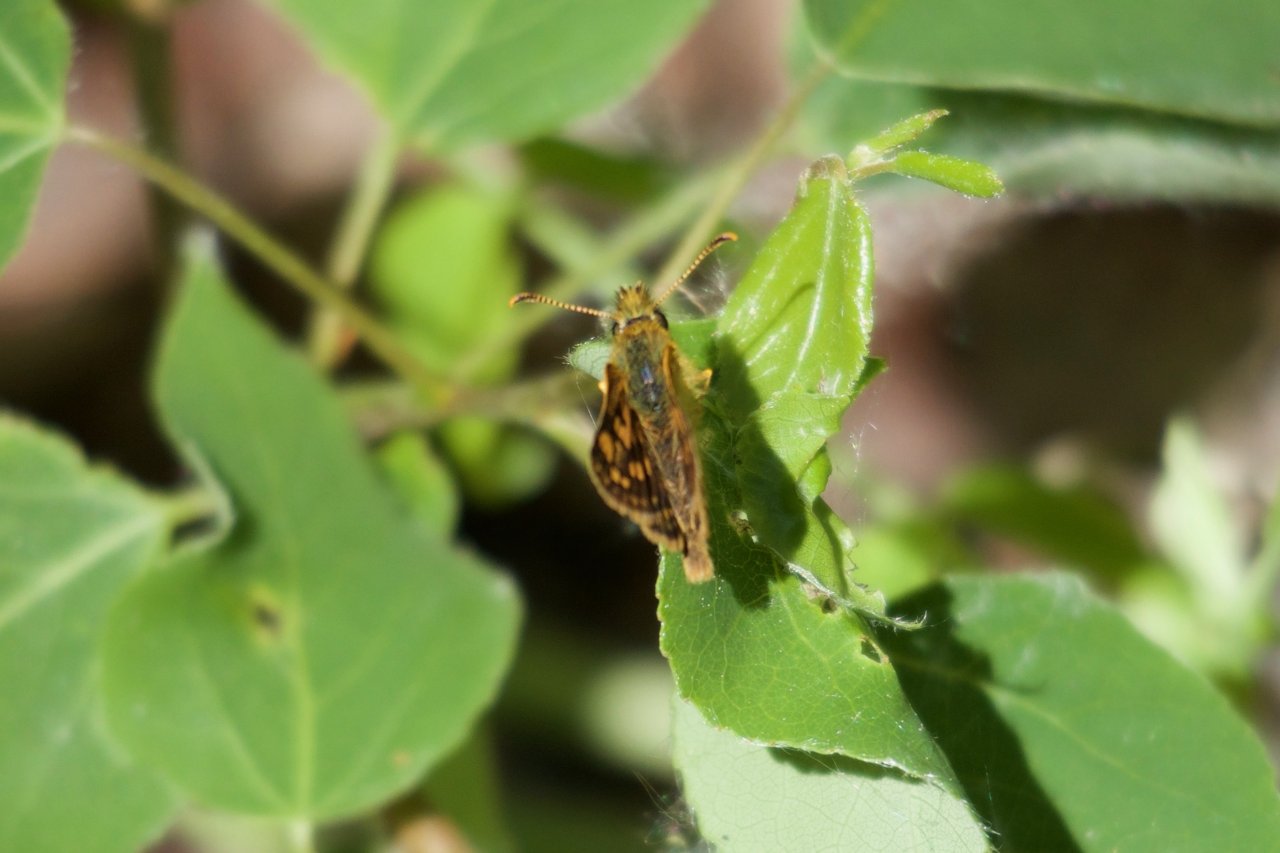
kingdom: Animalia
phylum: Arthropoda
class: Insecta
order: Lepidoptera
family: Hesperiidae
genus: Carterocephalus
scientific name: Carterocephalus palaemon
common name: Chequered Skipper
